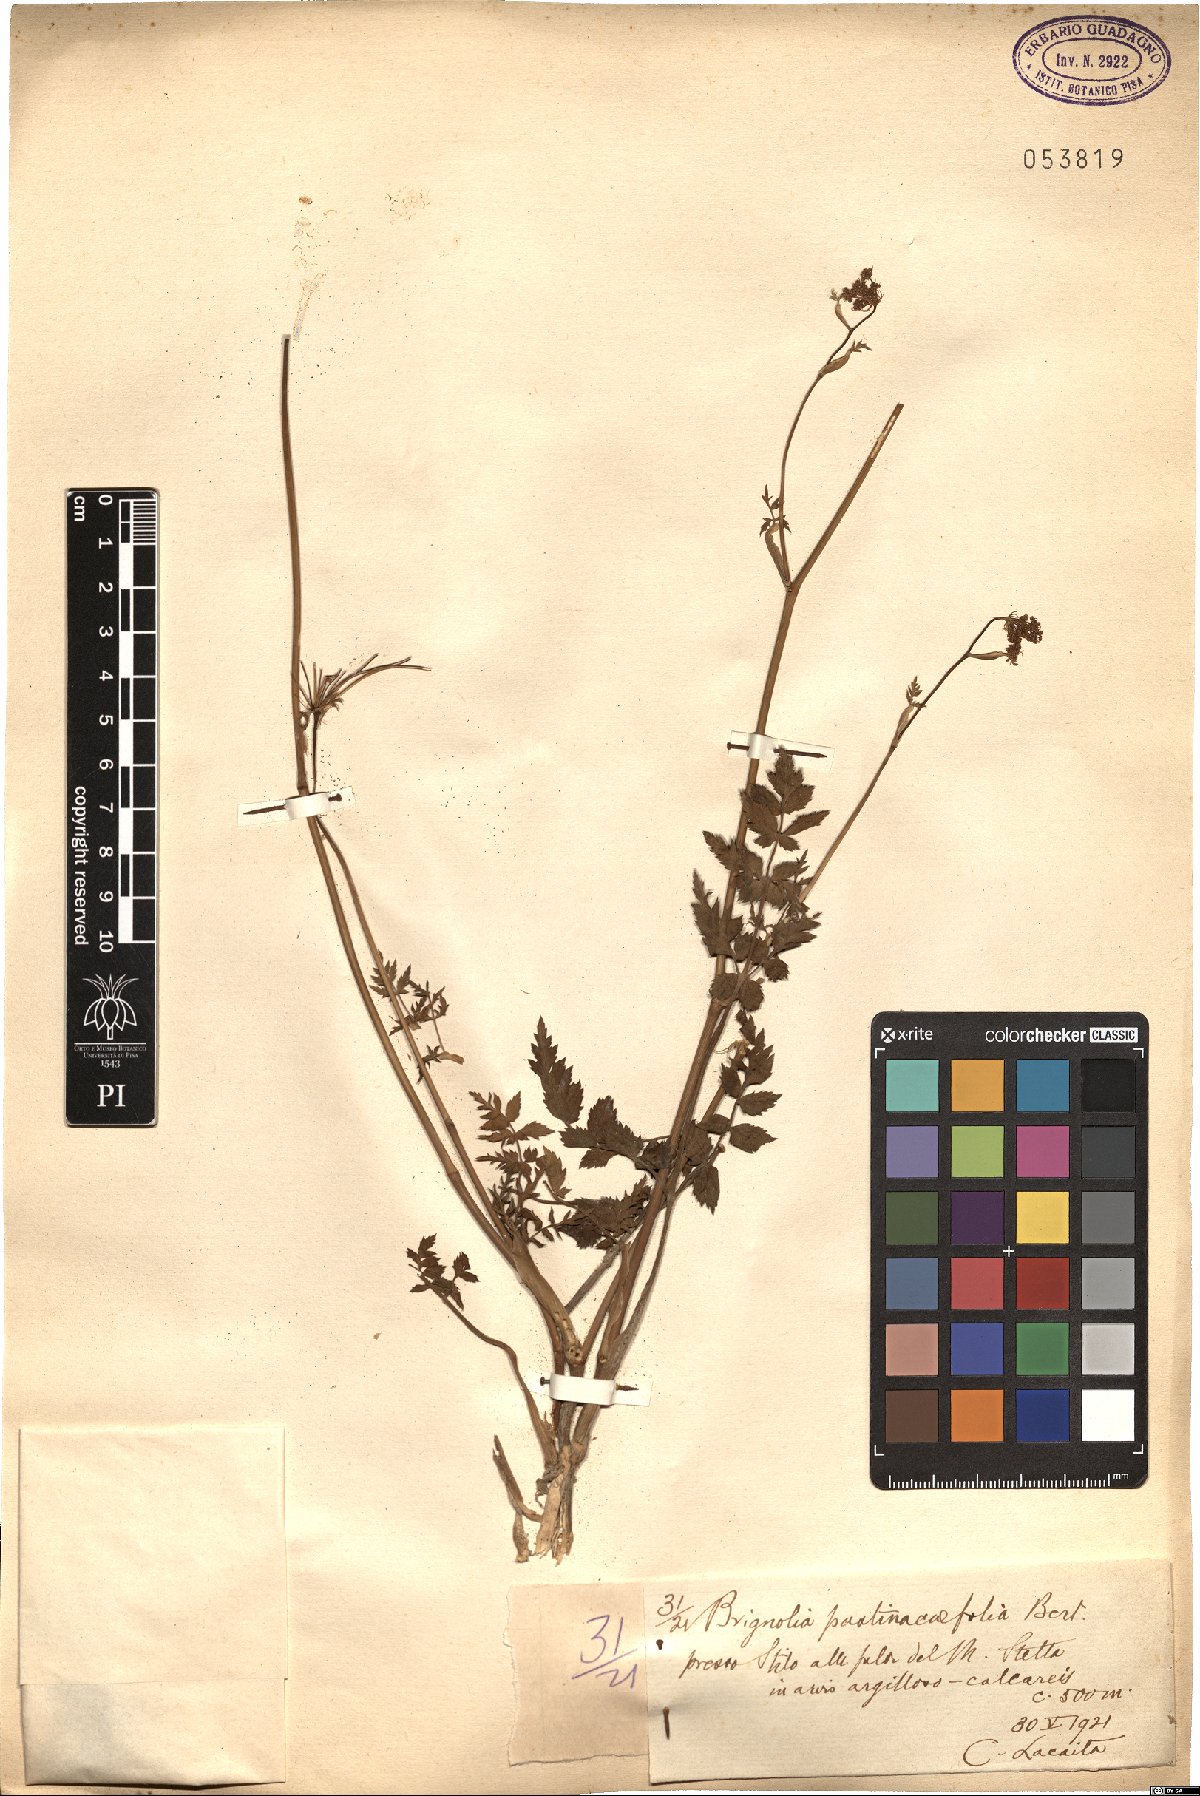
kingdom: Plantae
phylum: Tracheophyta
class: Magnoliopsida
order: Apiales
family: Apiaceae
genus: Kundmannia
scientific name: Kundmannia sicula
